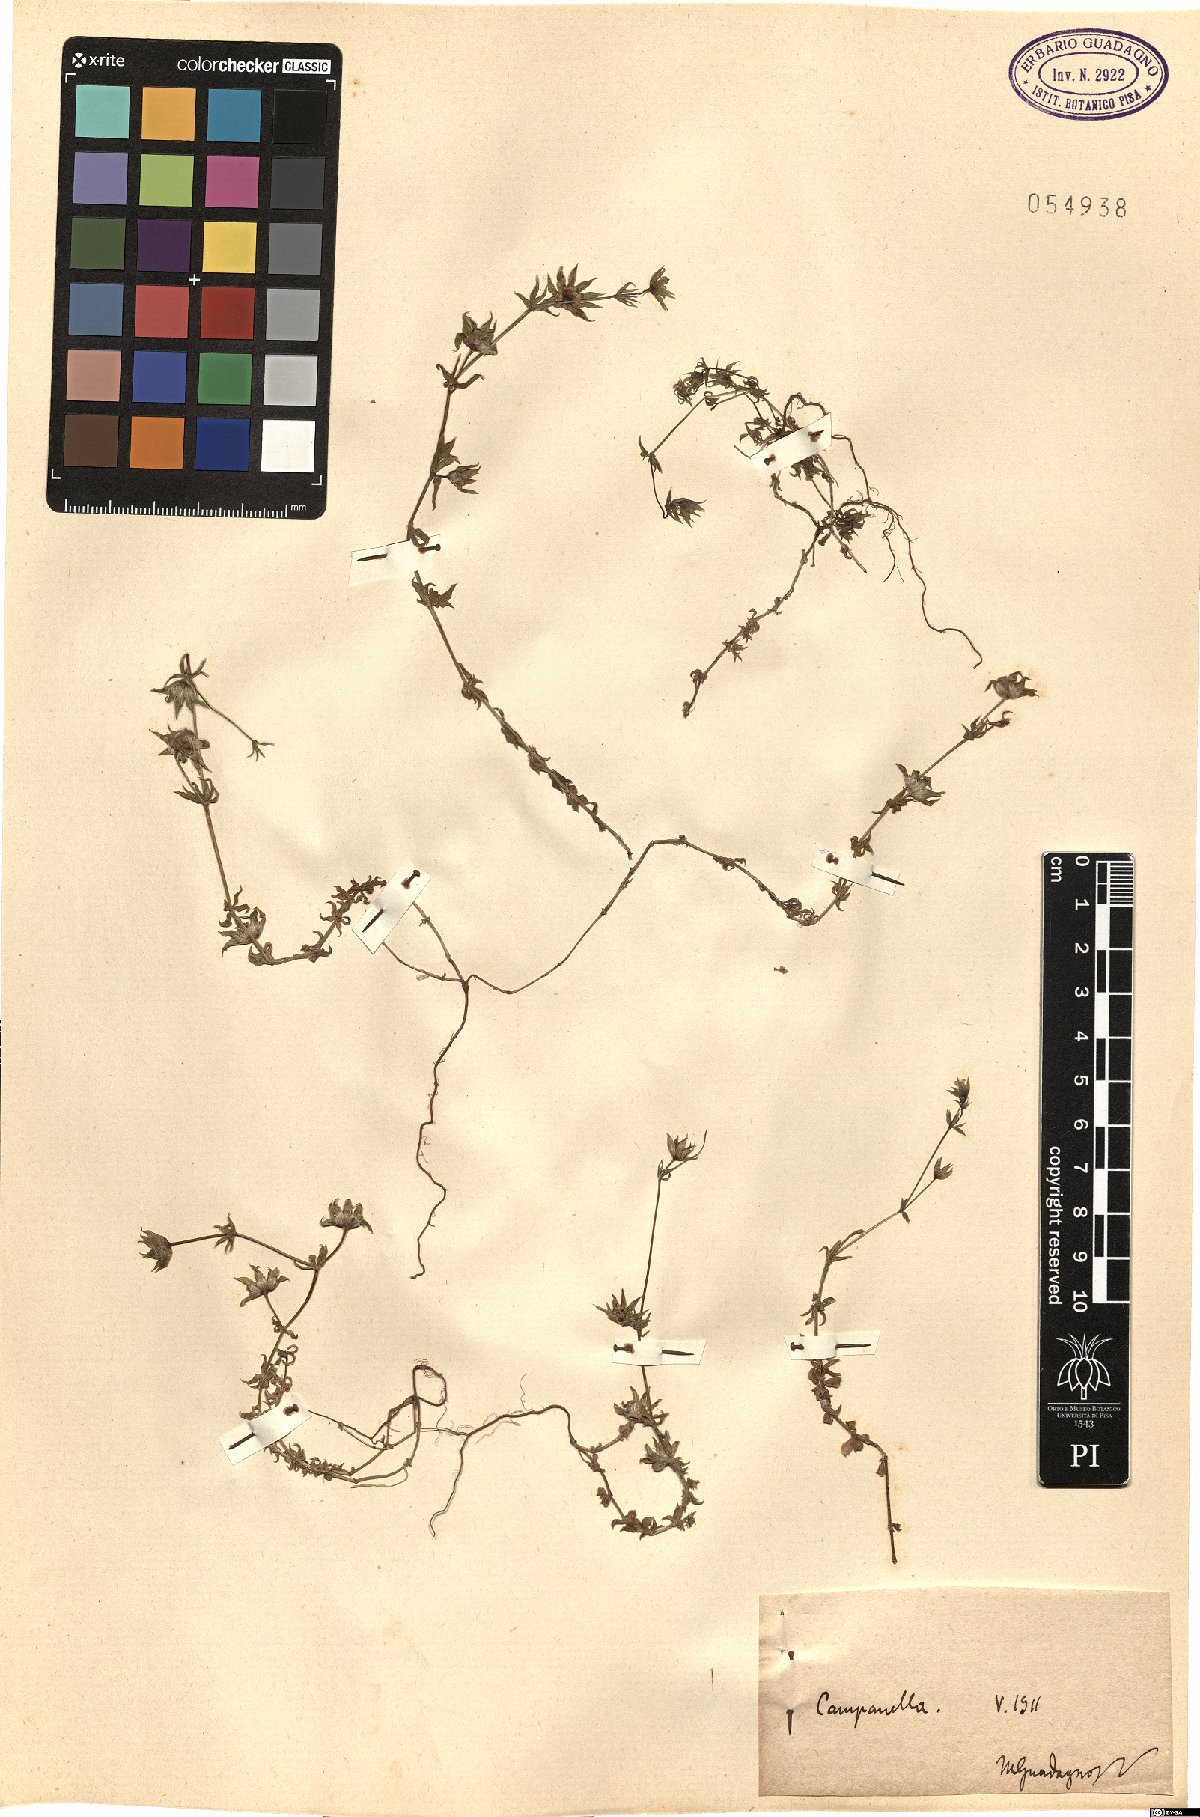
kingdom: Plantae
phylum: Tracheophyta
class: Magnoliopsida
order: Gentianales
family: Rubiaceae
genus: Sherardia
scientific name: Sherardia
